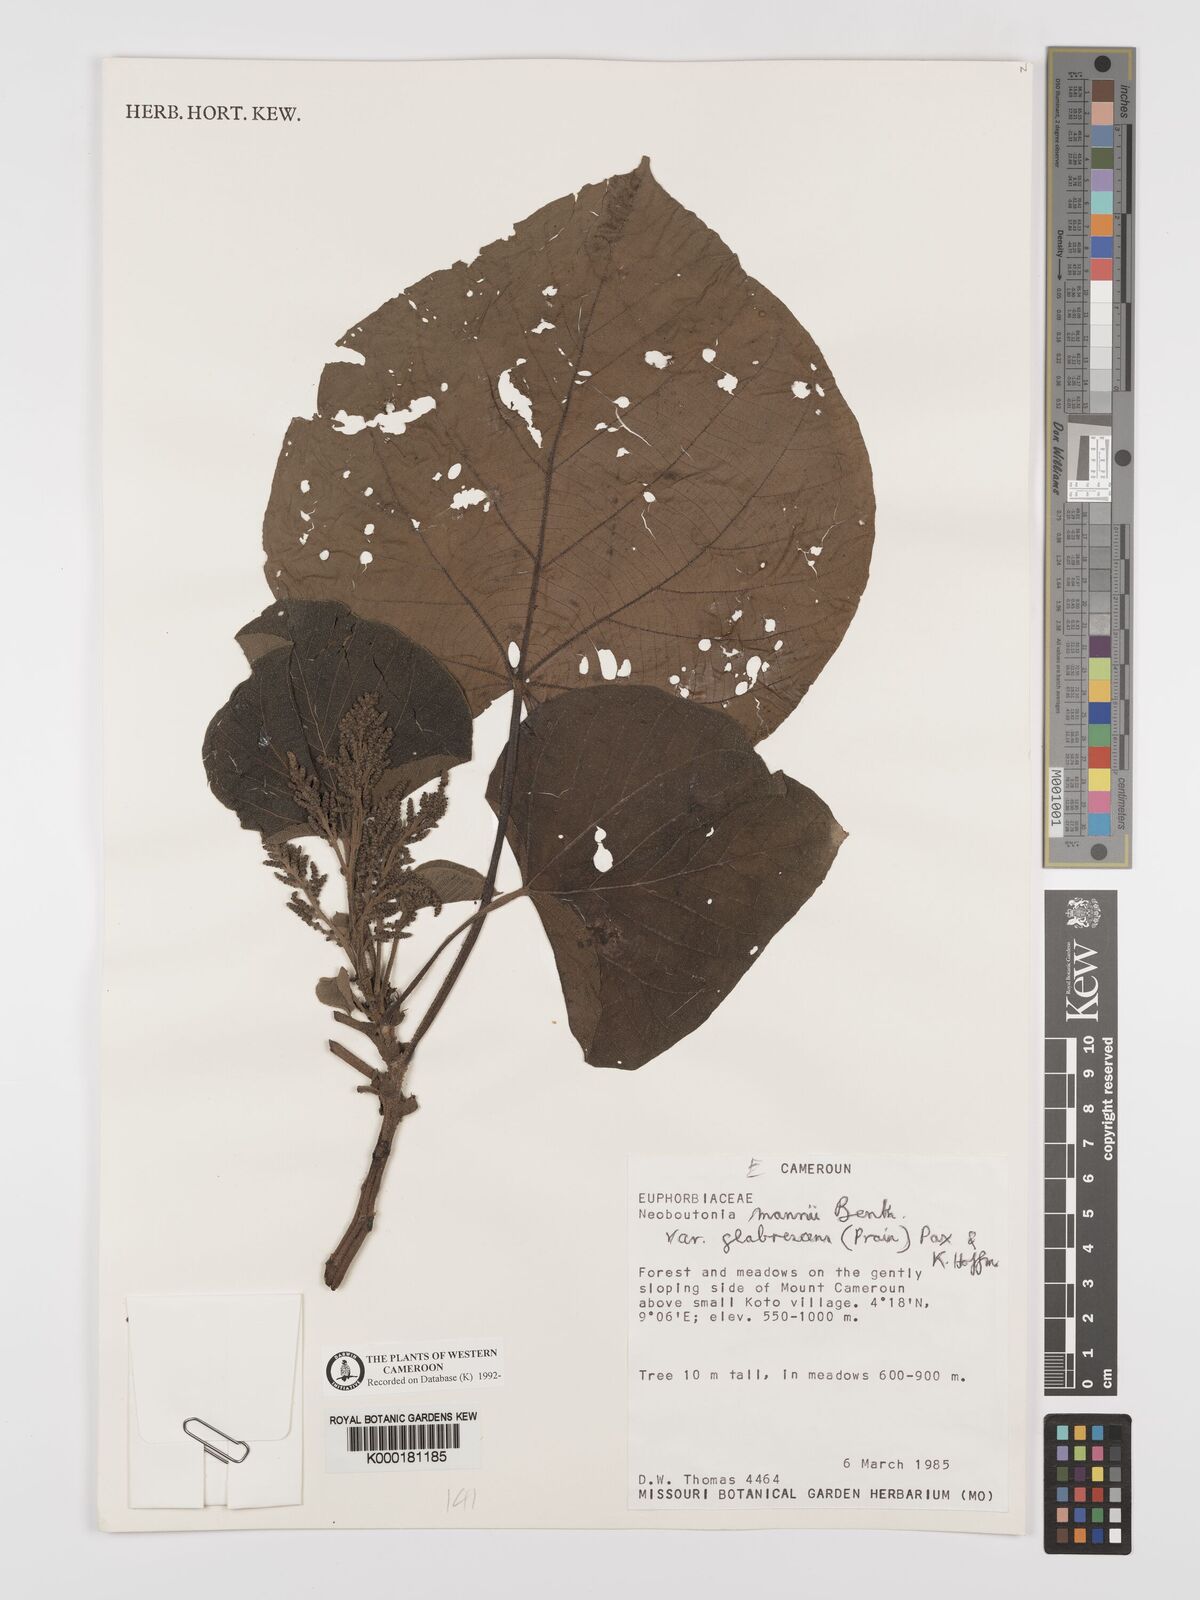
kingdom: Plantae
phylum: Tracheophyta
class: Magnoliopsida
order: Malpighiales
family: Euphorbiaceae
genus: Neoboutonia
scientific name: Neoboutonia mannii
